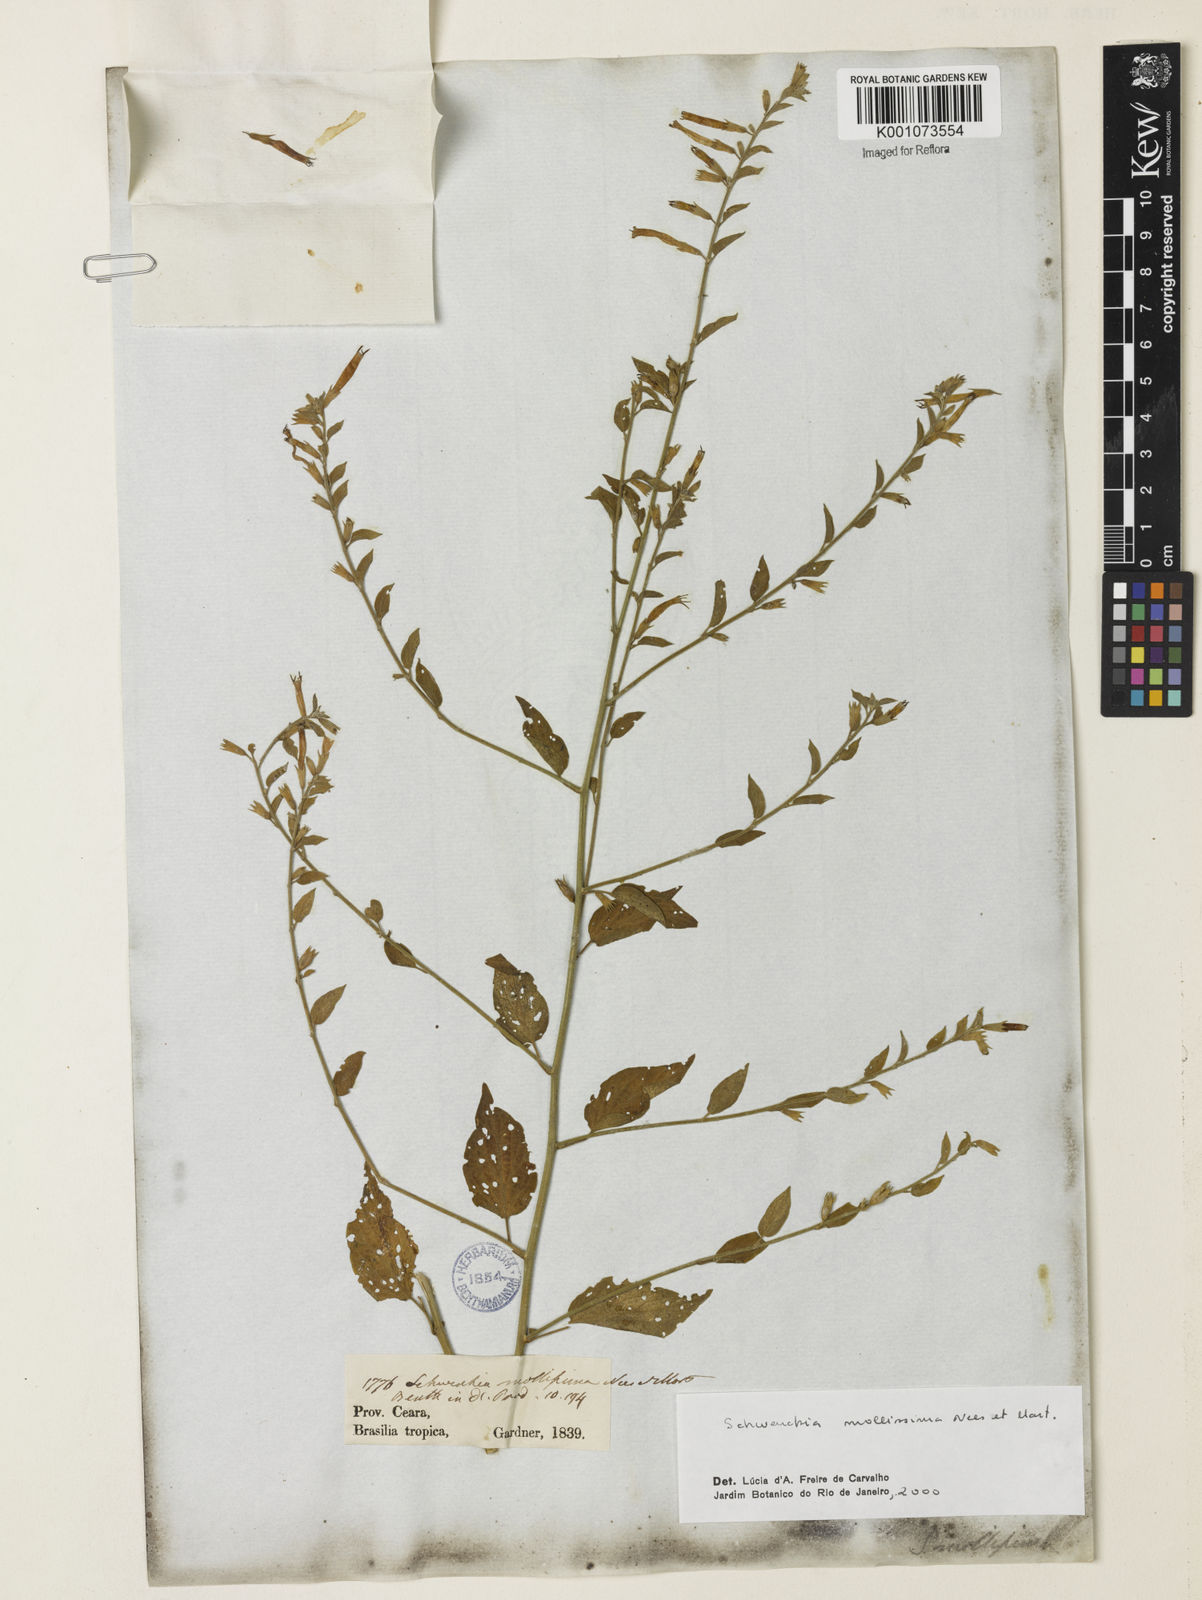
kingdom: Plantae
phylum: Tracheophyta
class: Magnoliopsida
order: Solanales
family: Solanaceae
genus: Schwenckia
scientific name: Schwenckia mollissima
